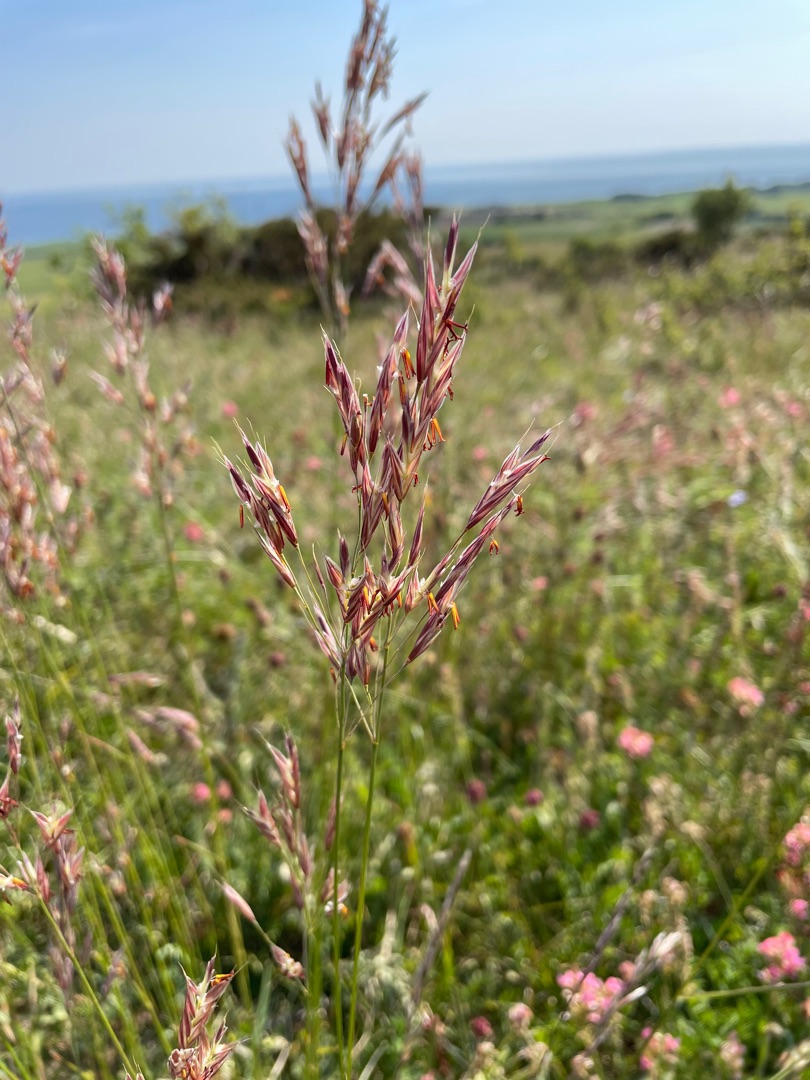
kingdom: Plantae
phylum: Tracheophyta
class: Liliopsida
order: Poales
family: Poaceae
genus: Bromus
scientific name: Bromus erectus
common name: Opret hejre
